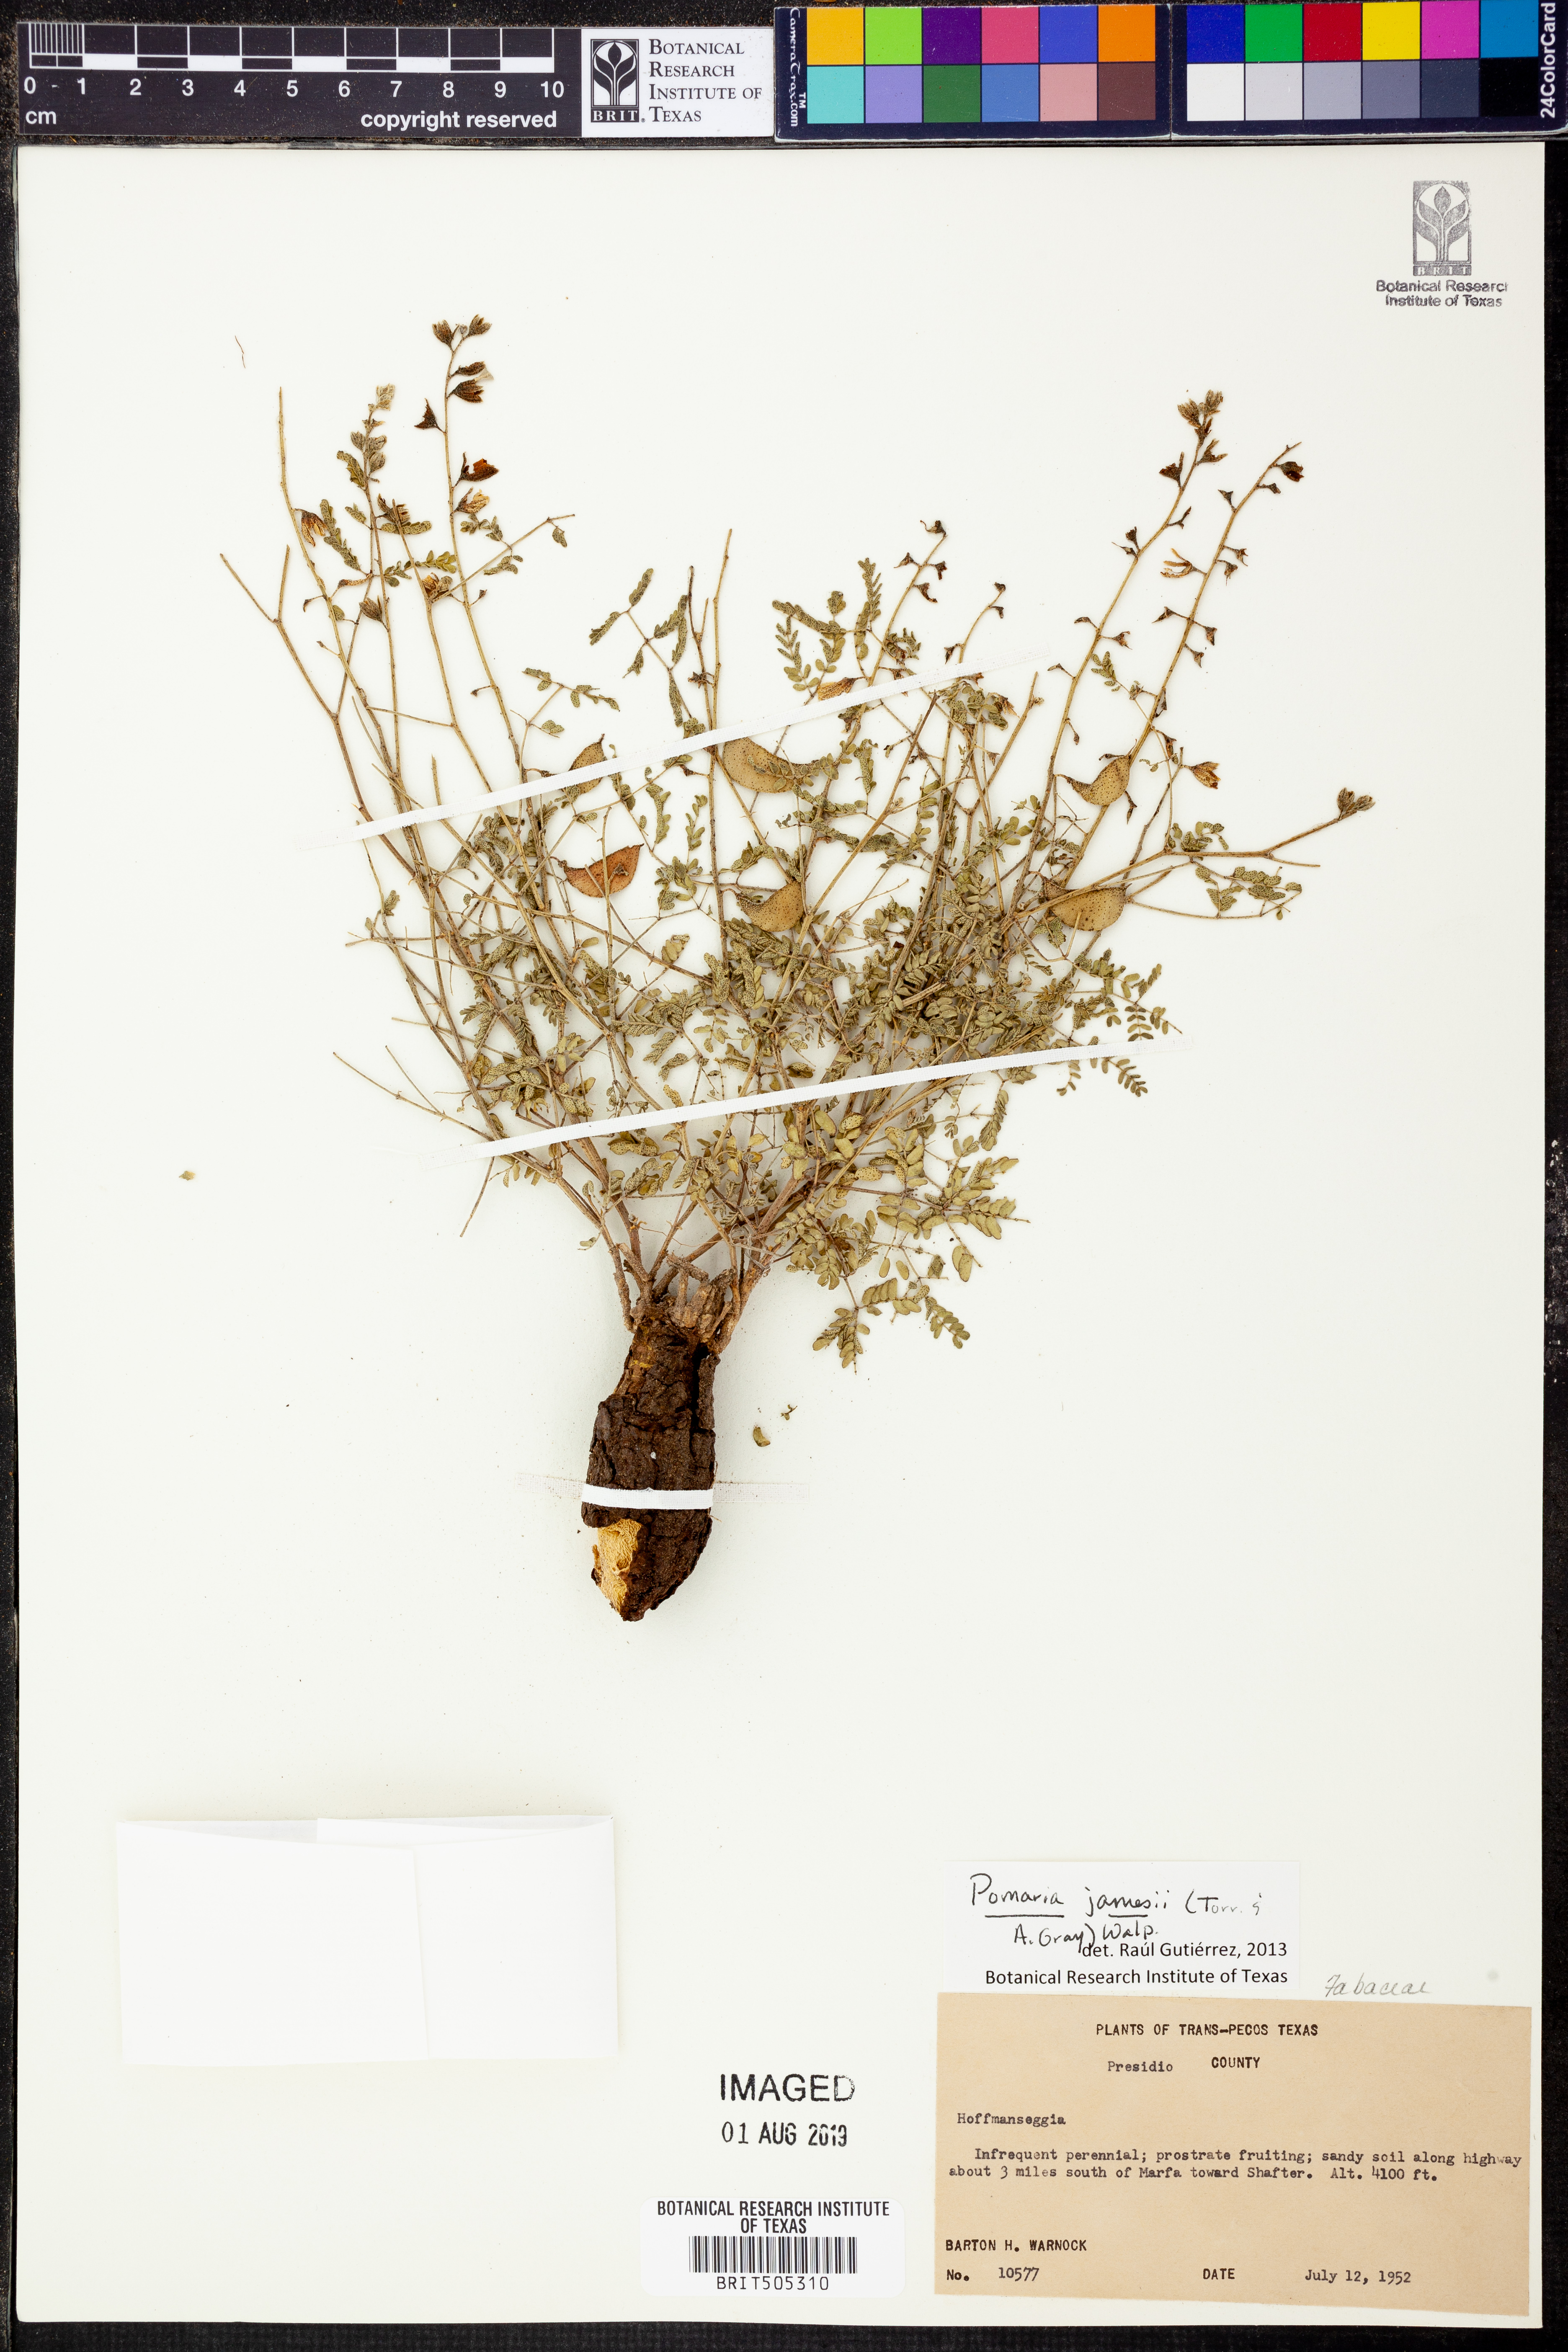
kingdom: Plantae
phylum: Tracheophyta
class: Magnoliopsida
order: Fabales
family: Fabaceae
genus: Pomaria
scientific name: Pomaria jamesii
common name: James' caesalpinia
